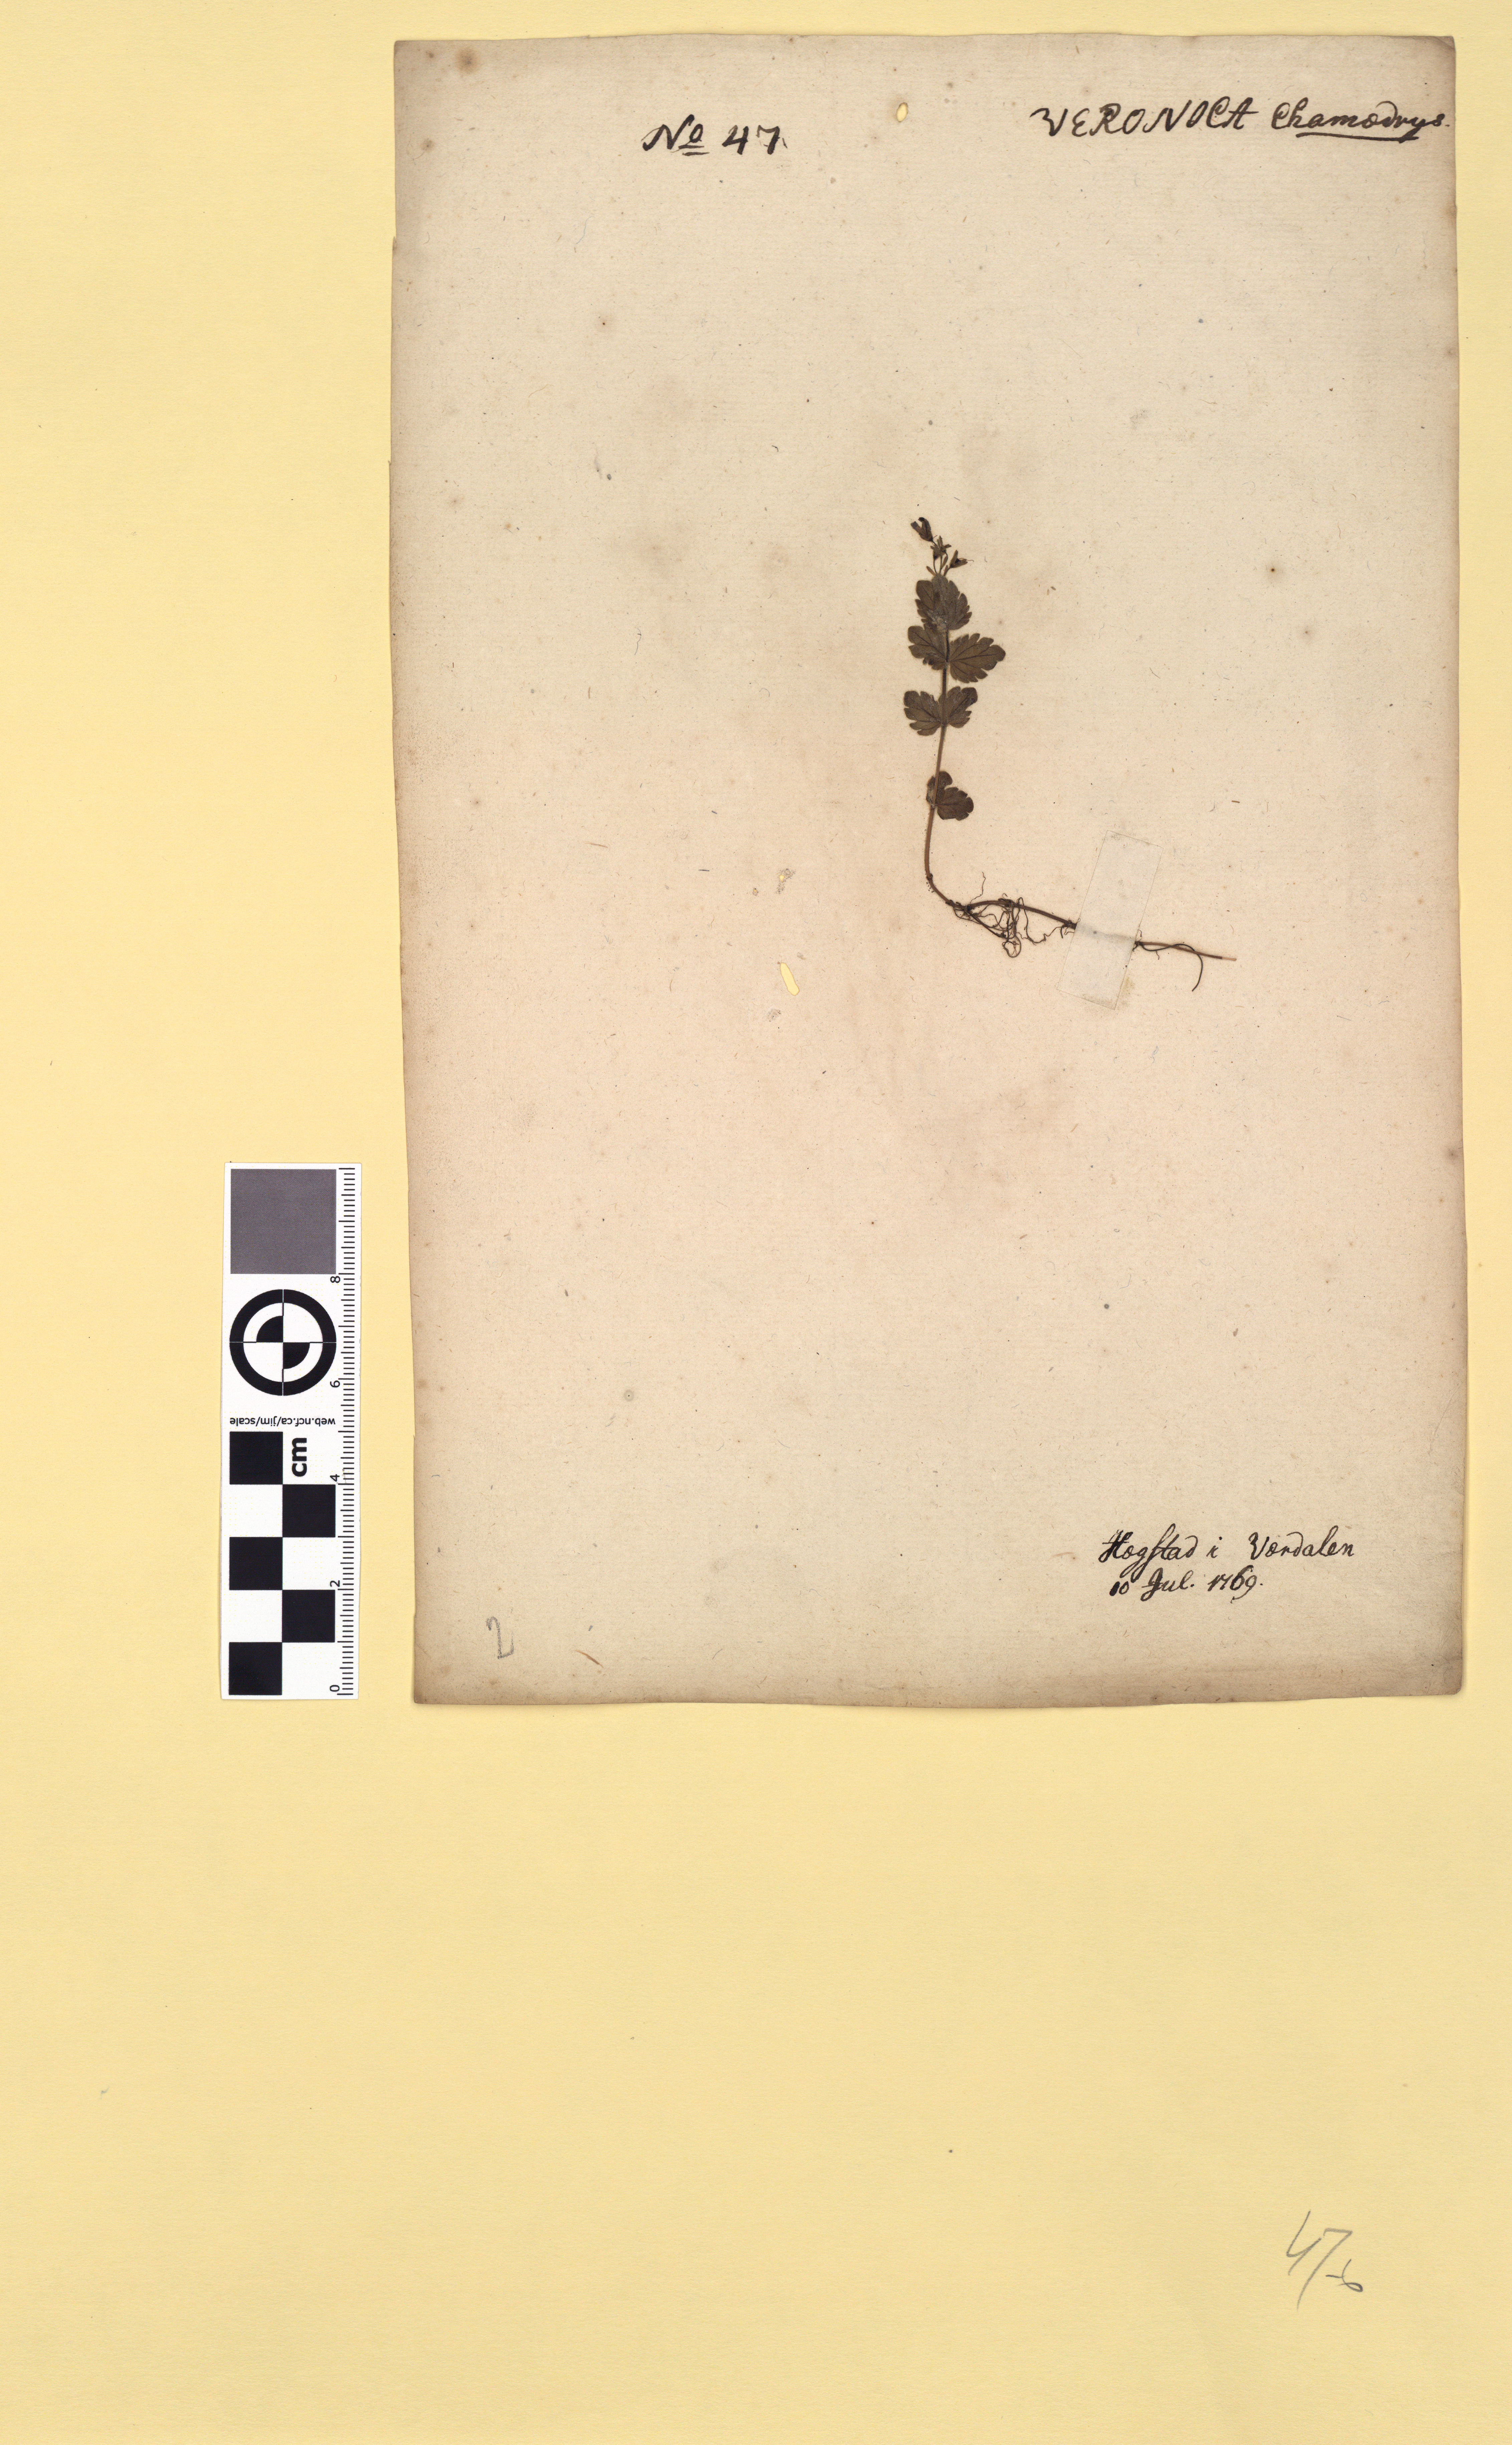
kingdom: Plantae
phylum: Tracheophyta
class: Magnoliopsida
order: Lamiales
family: Plantaginaceae
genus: Veronica
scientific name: Veronica chamaedrys
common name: Germander speedwell
